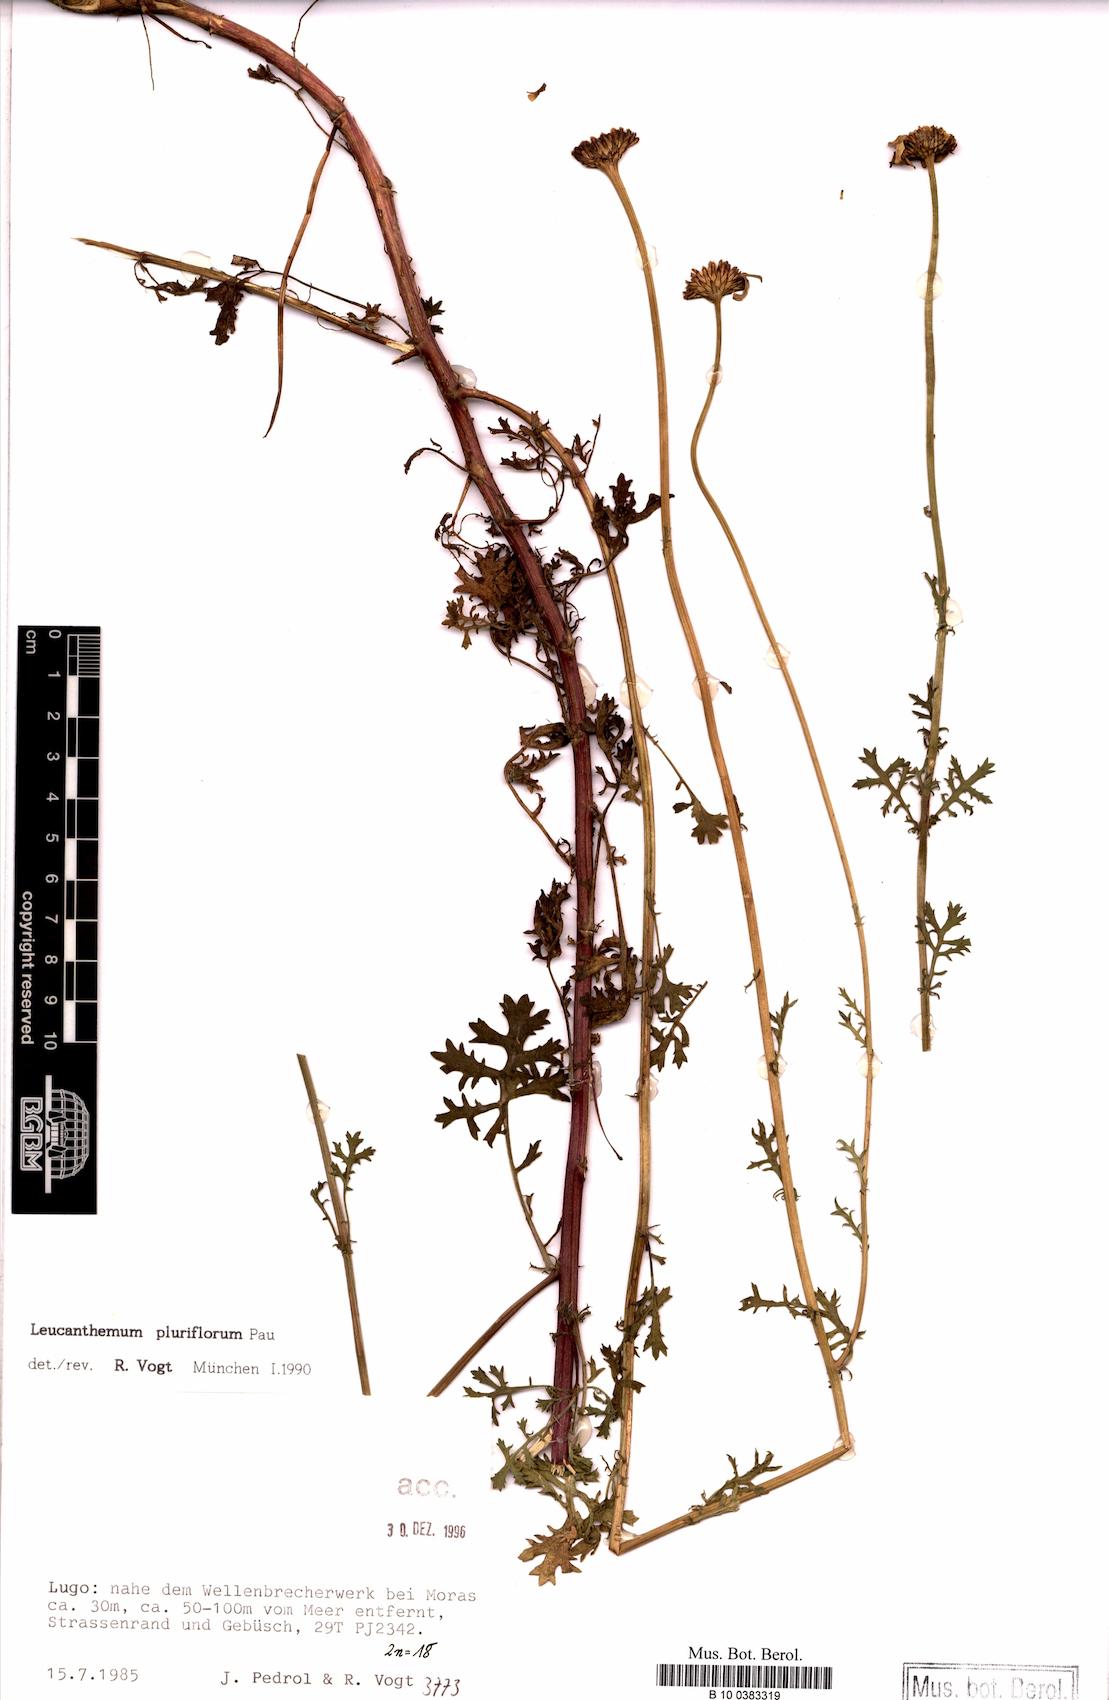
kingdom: Plantae
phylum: Tracheophyta
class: Magnoliopsida
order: Asterales
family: Asteraceae
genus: Leucanthemum
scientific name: Leucanthemum pluriflorum
